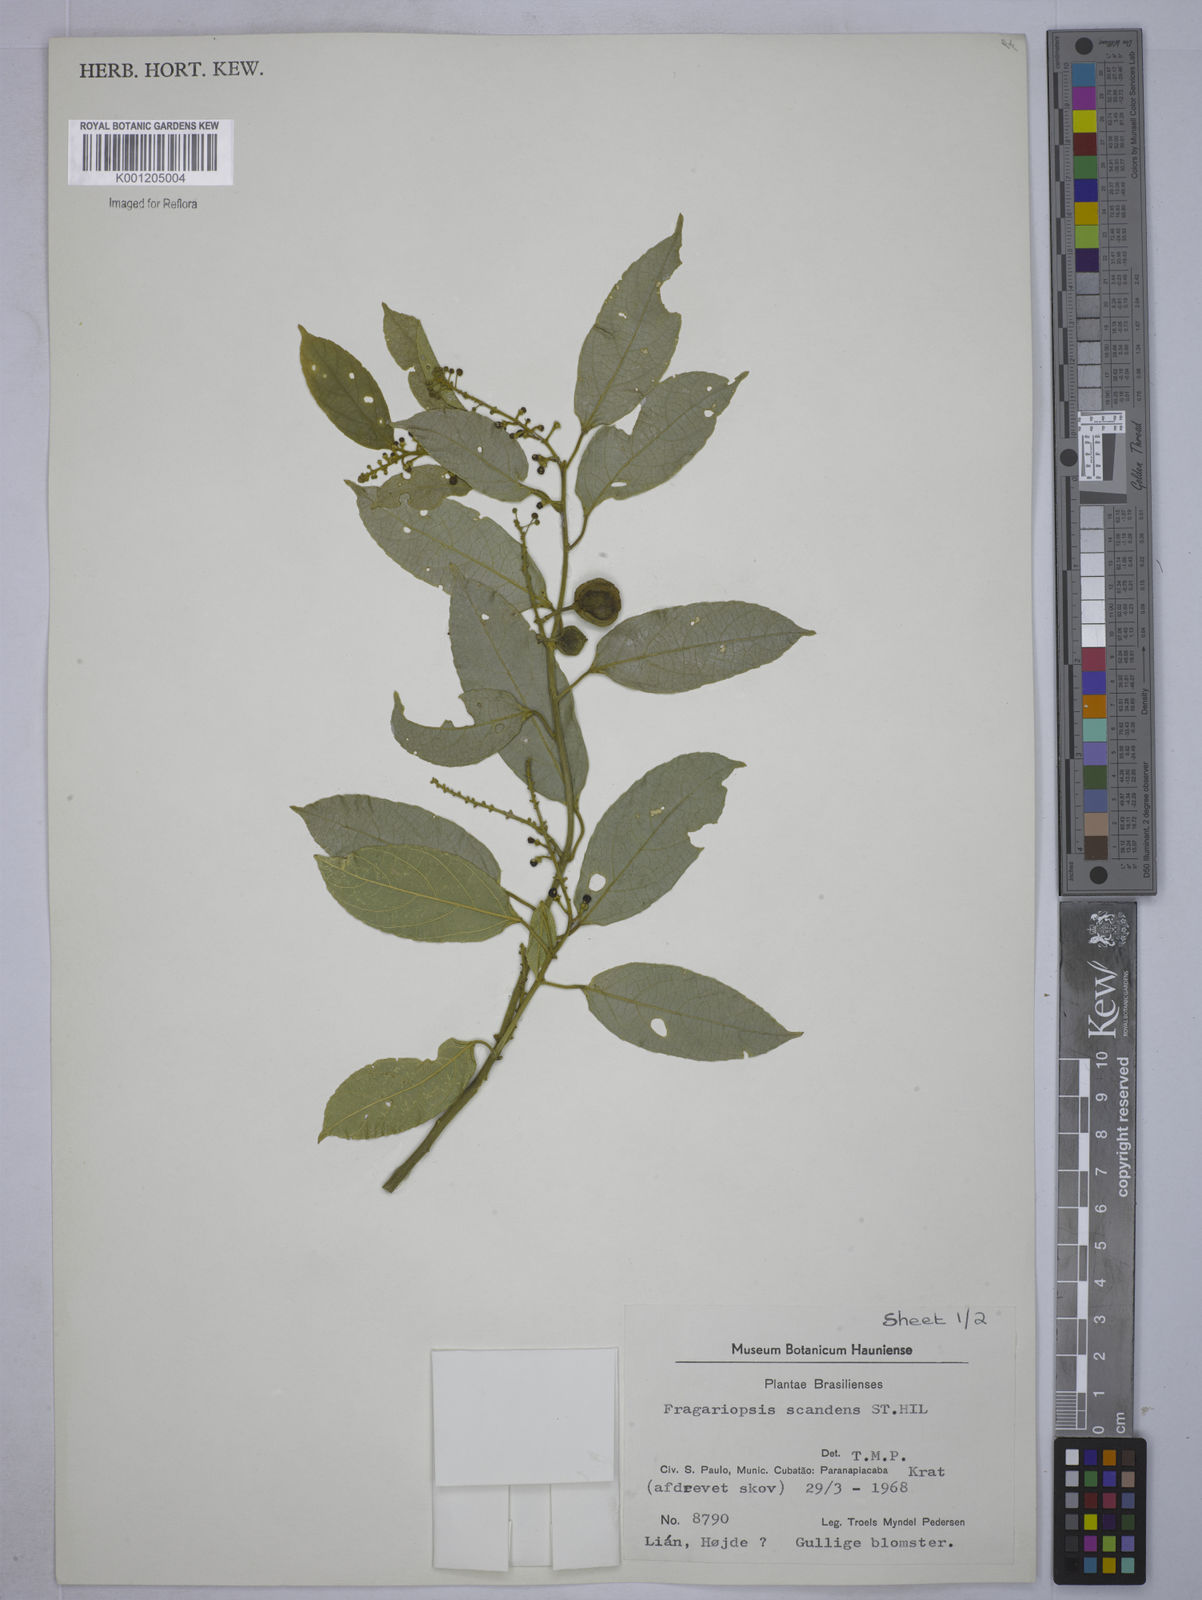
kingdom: Plantae
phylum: Tracheophyta
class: Magnoliopsida
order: Malpighiales
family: Euphorbiaceae
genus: Plukenetia
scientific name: Plukenetia serrata
